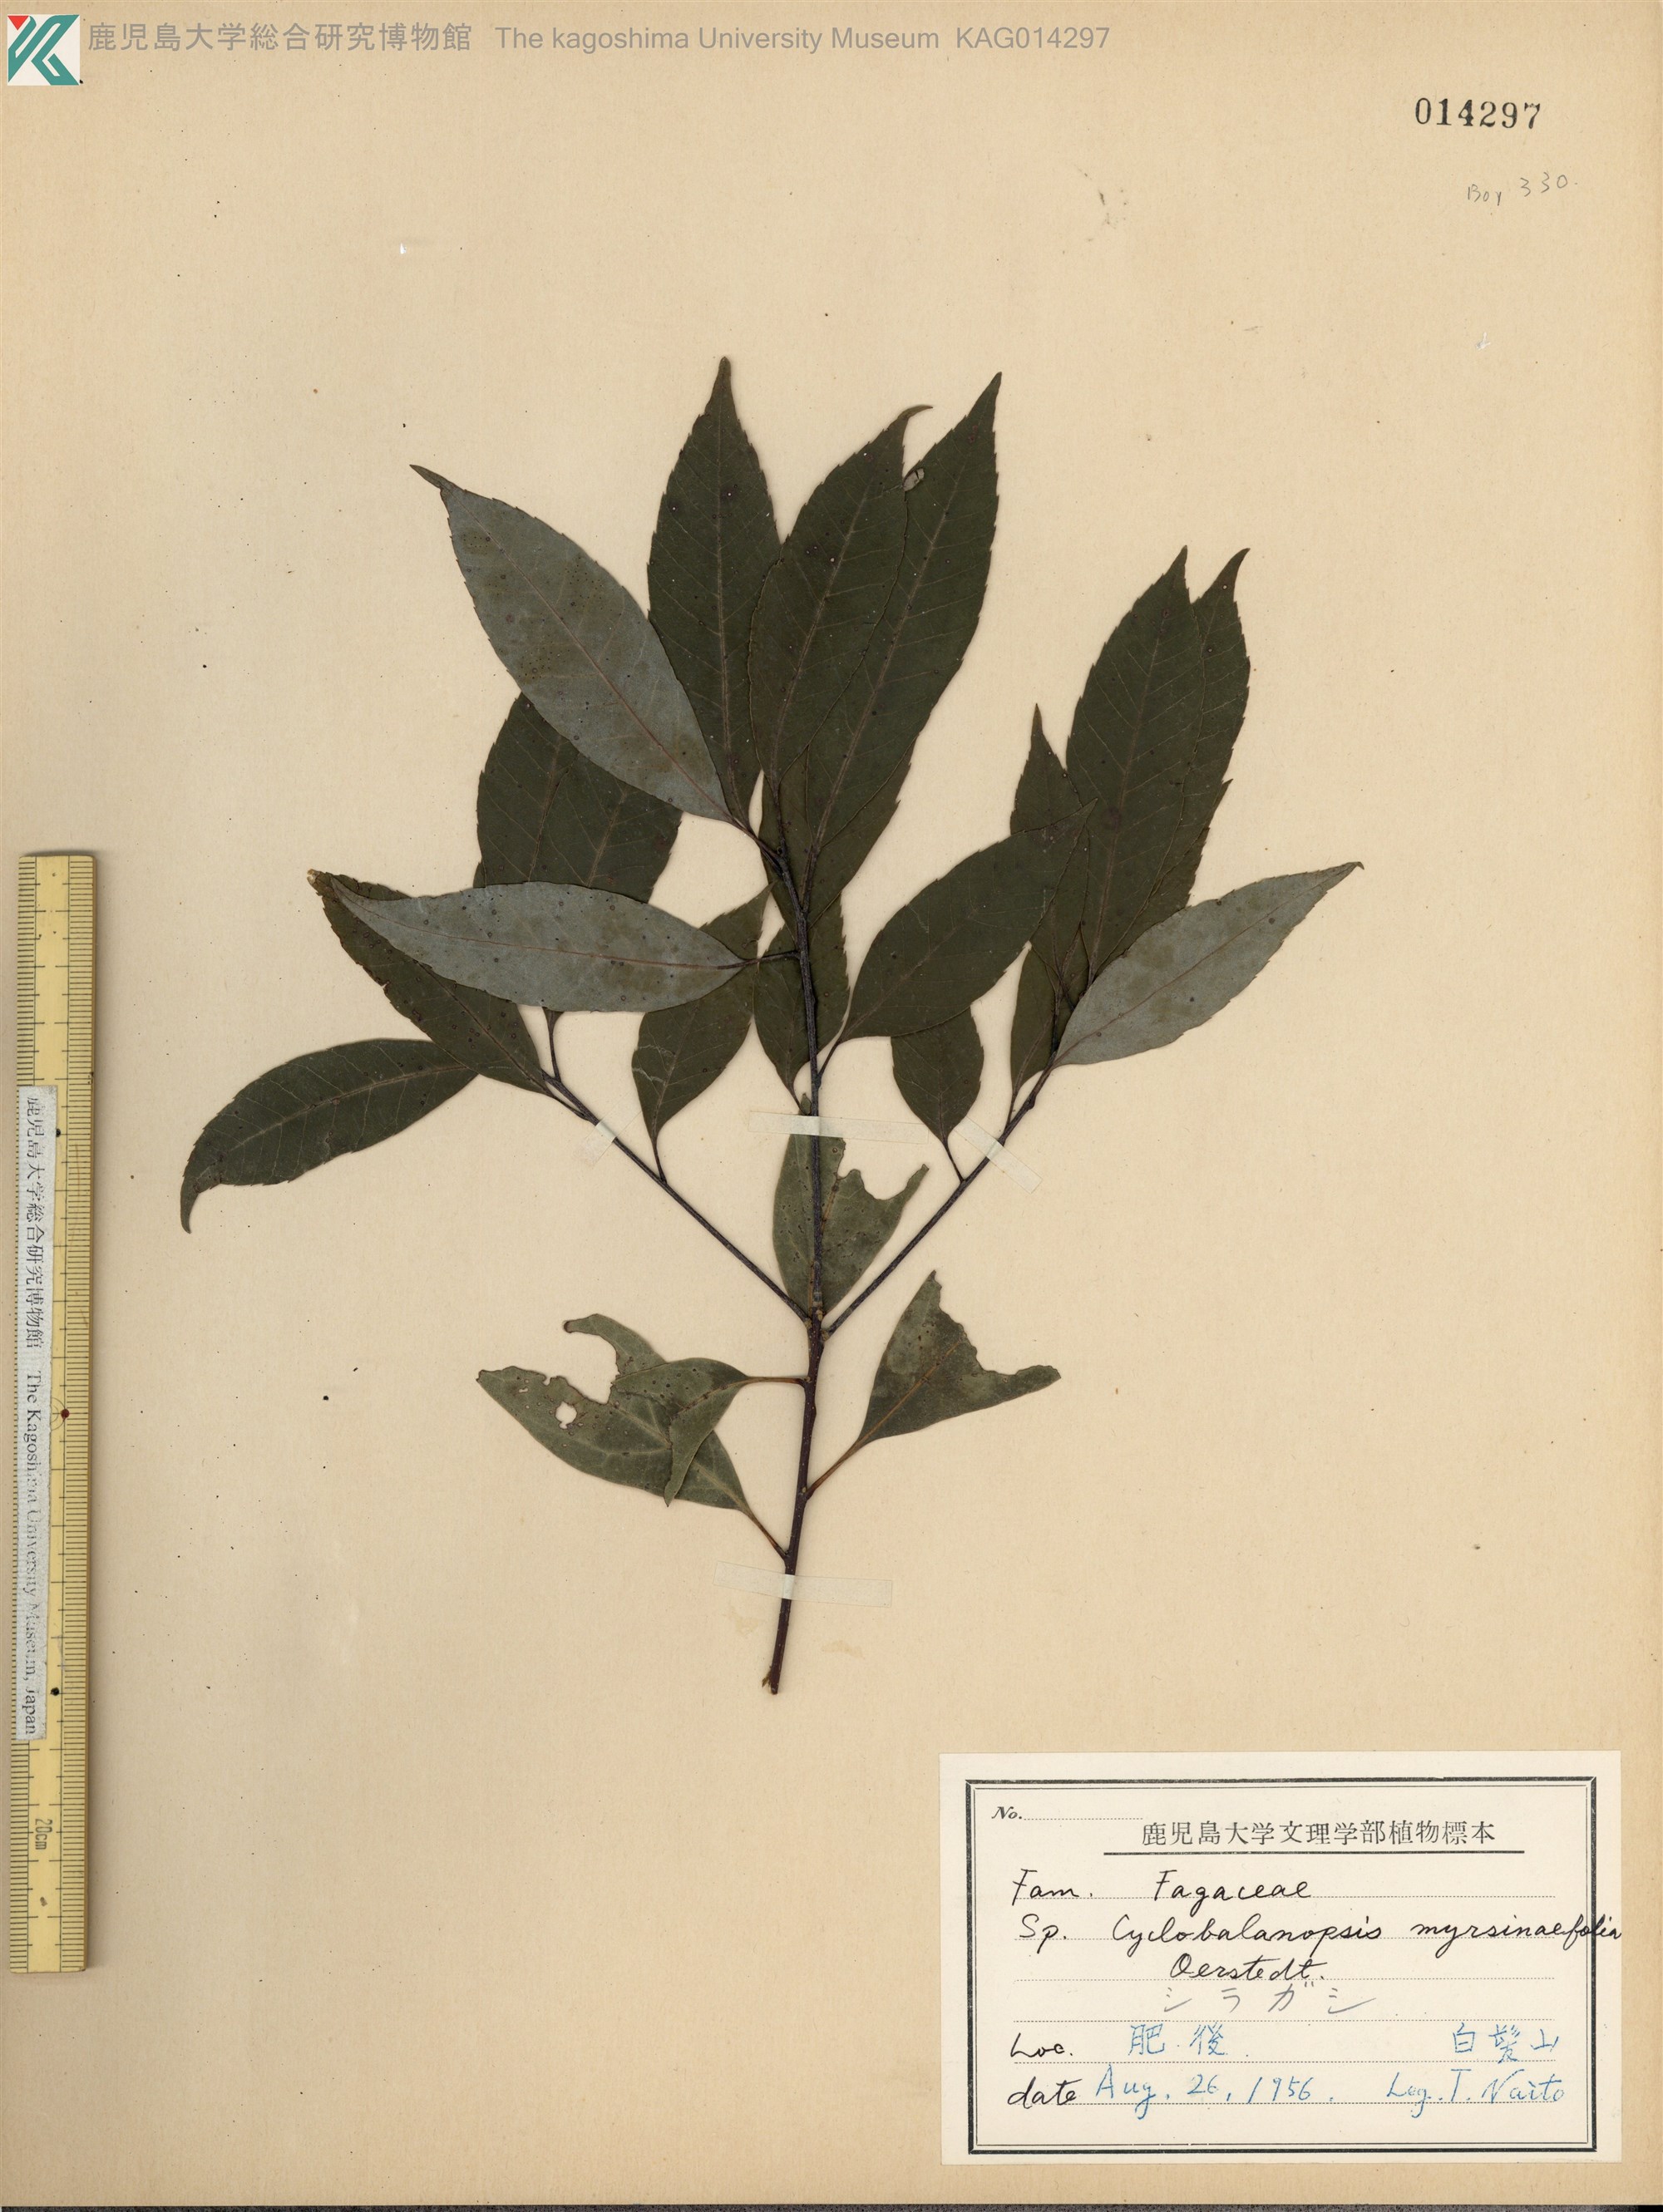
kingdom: Plantae
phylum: Tracheophyta
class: Magnoliopsida
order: Fagales
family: Fagaceae
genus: Quercus
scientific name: Quercus myrsinaefolia
